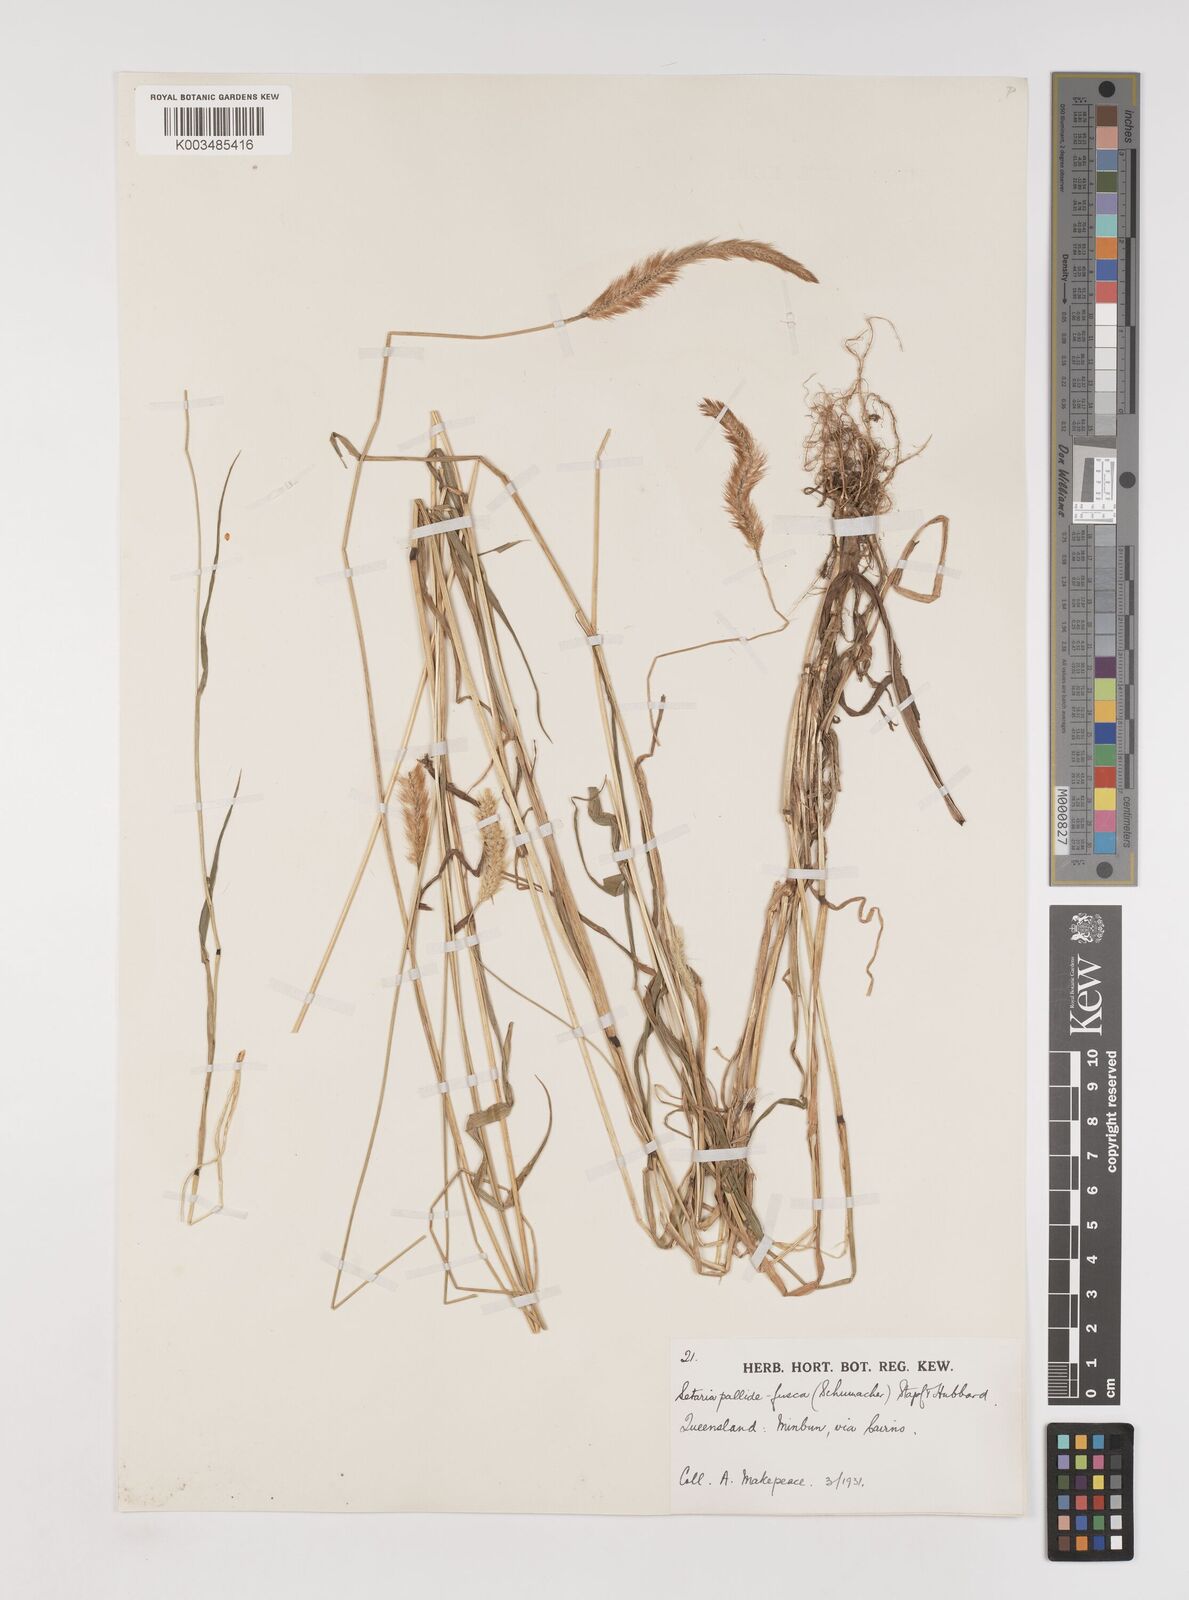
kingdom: Plantae
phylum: Tracheophyta
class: Liliopsida
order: Poales
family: Poaceae
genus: Setaria
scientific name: Setaria pumila
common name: Yellow bristle-grass
